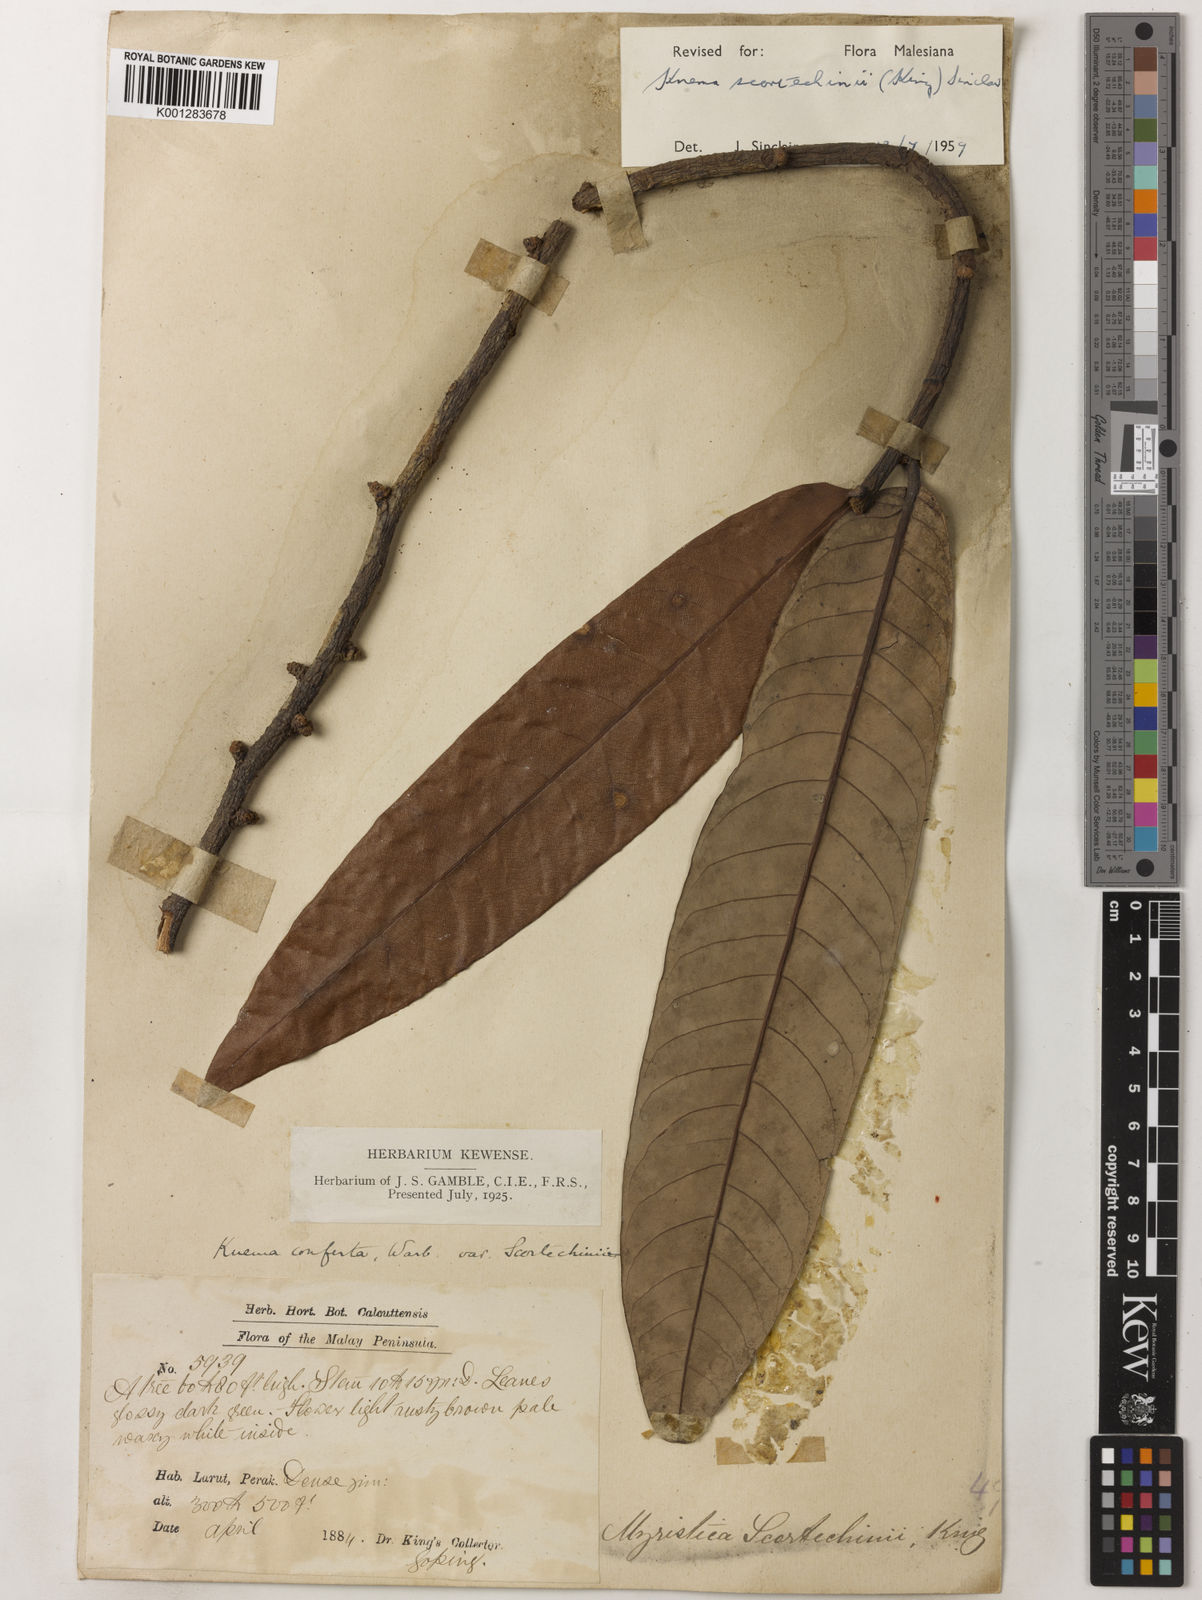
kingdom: Plantae
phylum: Tracheophyta
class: Magnoliopsida
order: Magnoliales
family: Myristicaceae
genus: Knema
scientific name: Knema scortechinii
